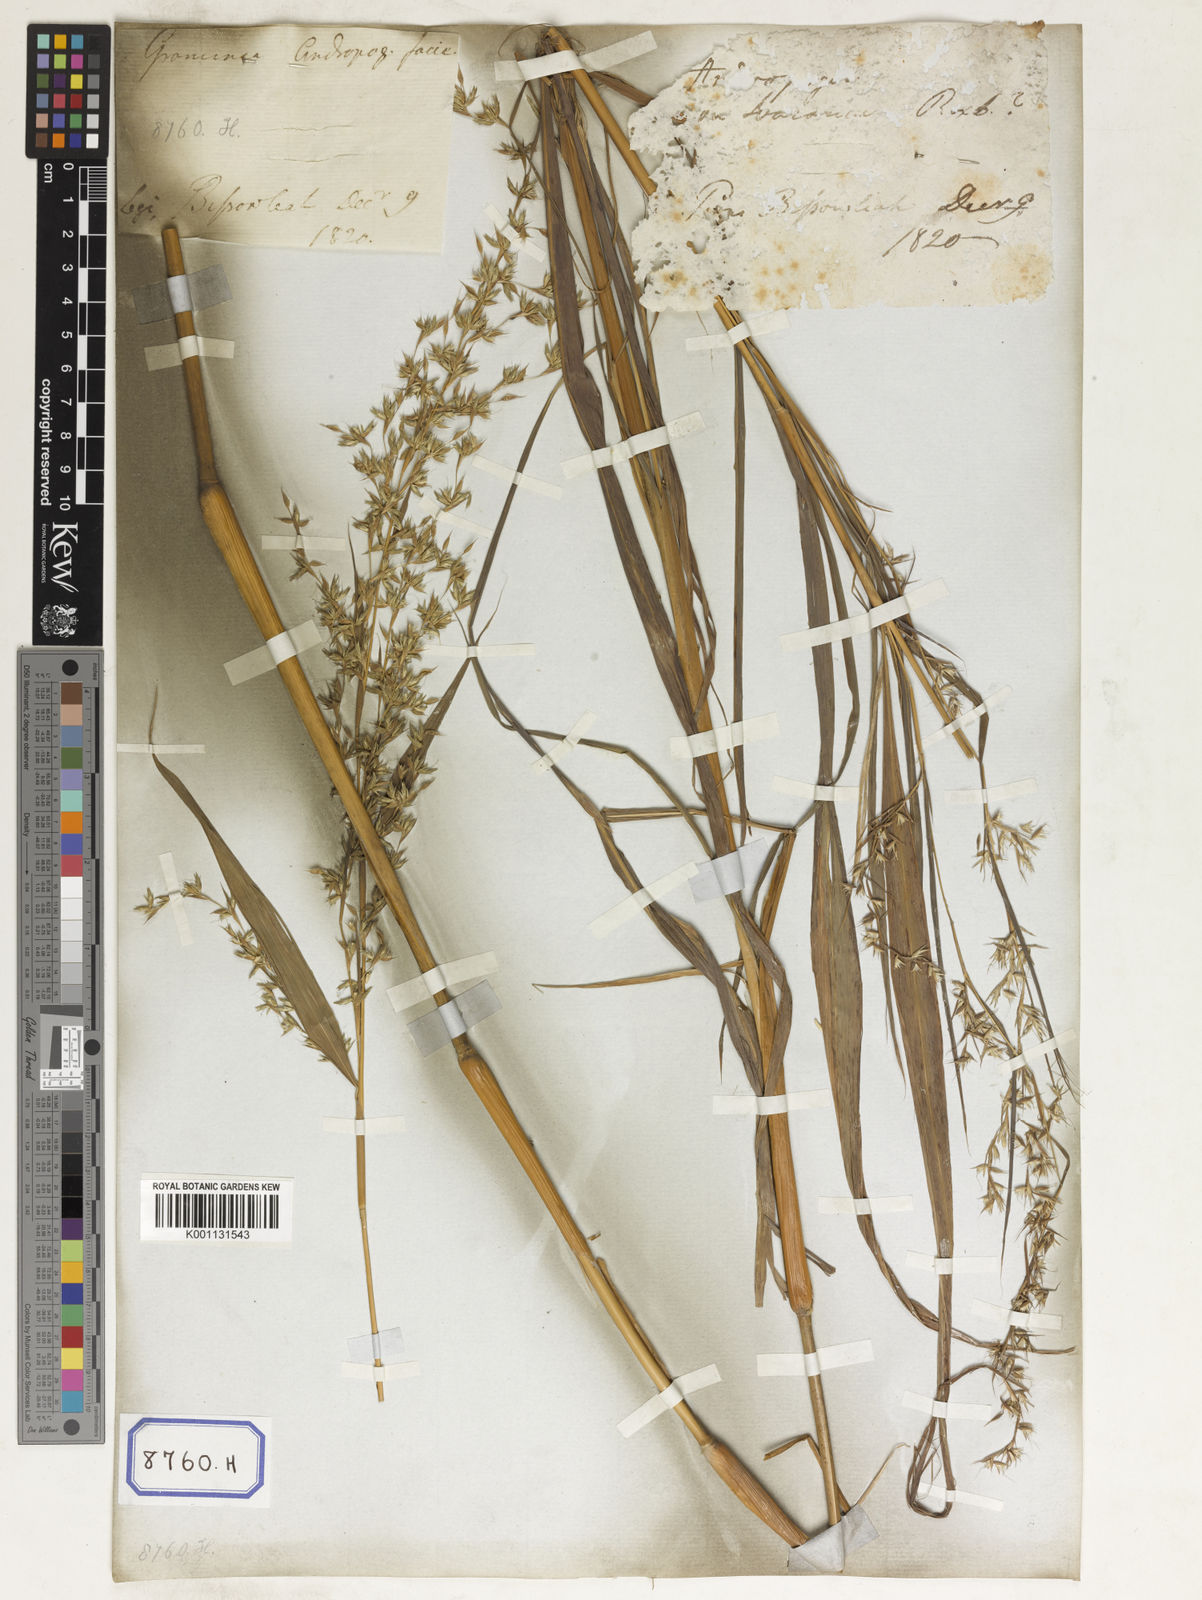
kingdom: Plantae
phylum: Tracheophyta
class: Liliopsida
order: Poales
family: Poaceae
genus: Apluda
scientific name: Apluda
